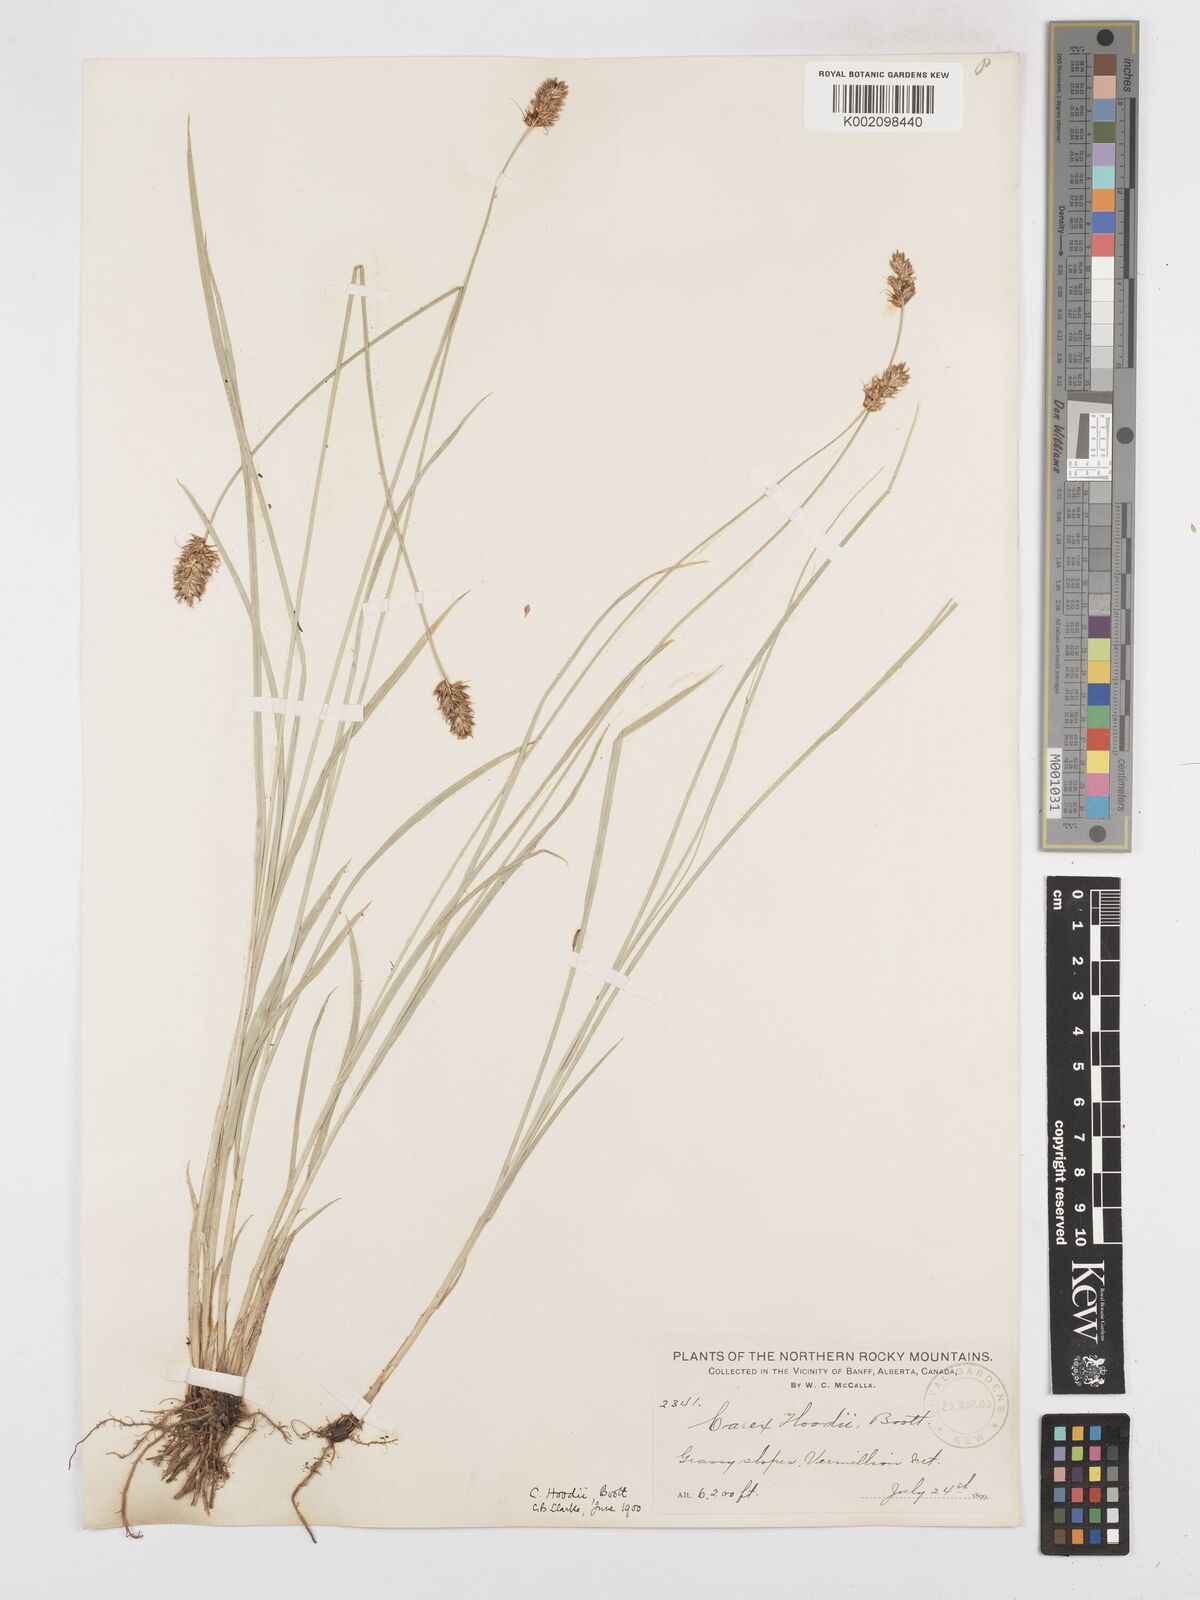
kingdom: Plantae
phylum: Tracheophyta
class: Liliopsida
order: Poales
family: Cyperaceae
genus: Carex
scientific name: Carex hoodii
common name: Hood's sedge
